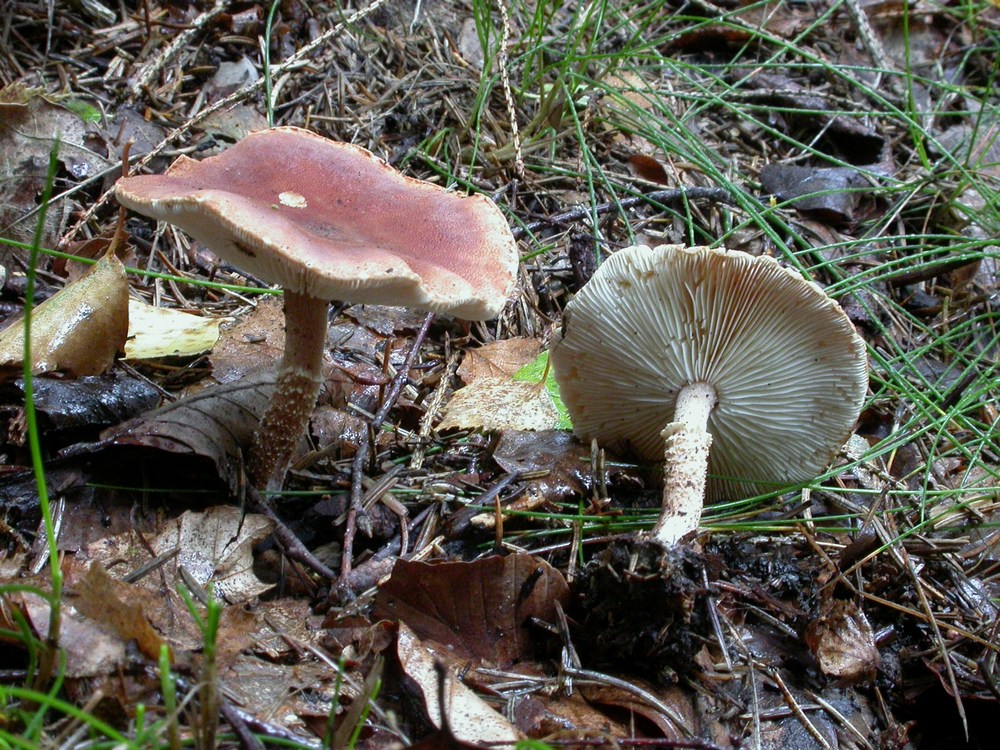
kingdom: Fungi
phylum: Basidiomycota
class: Agaricomycetes
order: Agaricales
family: Agaricaceae
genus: Cystodermella
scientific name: Cystodermella granulosa
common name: kliddet grynhat
